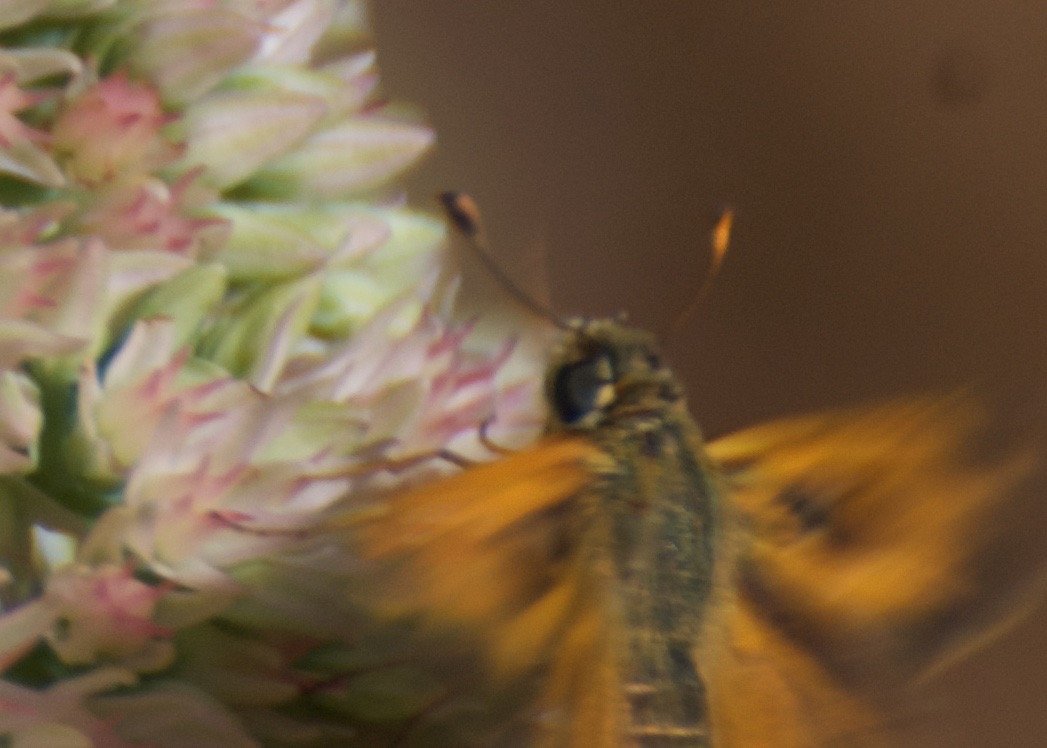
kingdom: Animalia
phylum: Arthropoda
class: Insecta
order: Lepidoptera
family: Hesperiidae
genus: Atalopedes
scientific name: Atalopedes campestris
